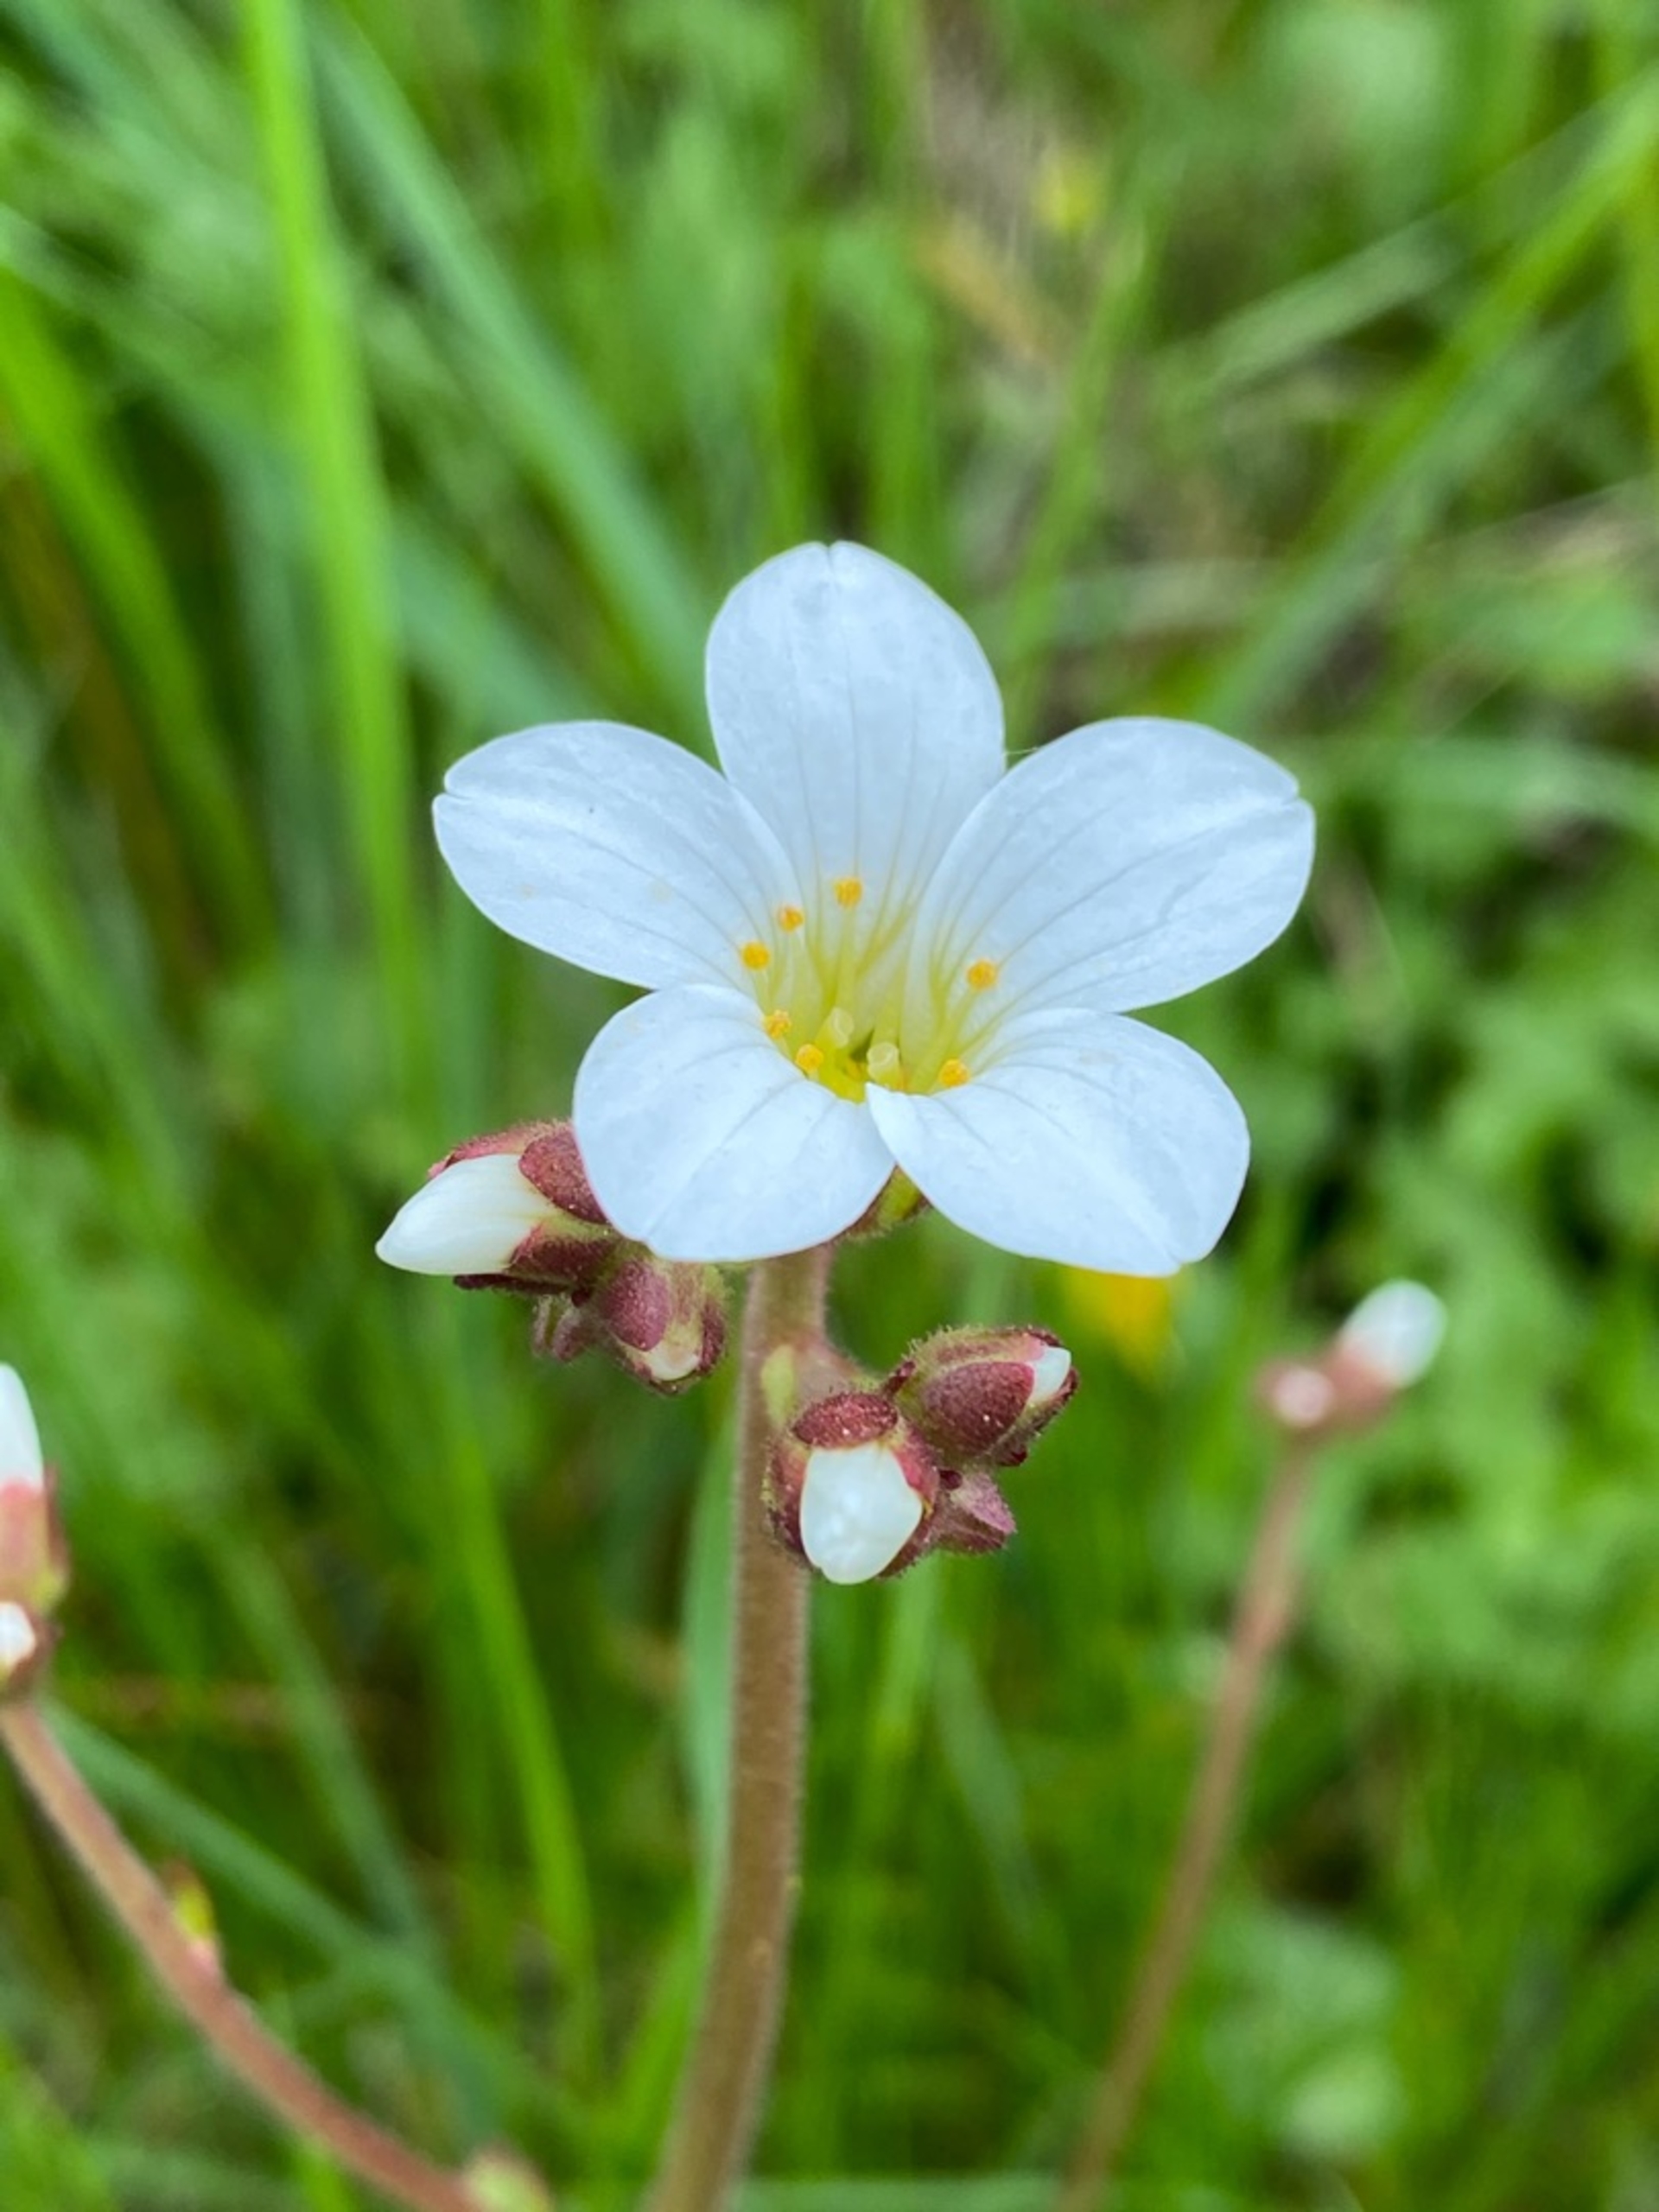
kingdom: Plantae
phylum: Tracheophyta
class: Magnoliopsida
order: Saxifragales
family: Saxifragaceae
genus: Saxifraga
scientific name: Saxifraga granulata
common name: Kornet stenbræk
